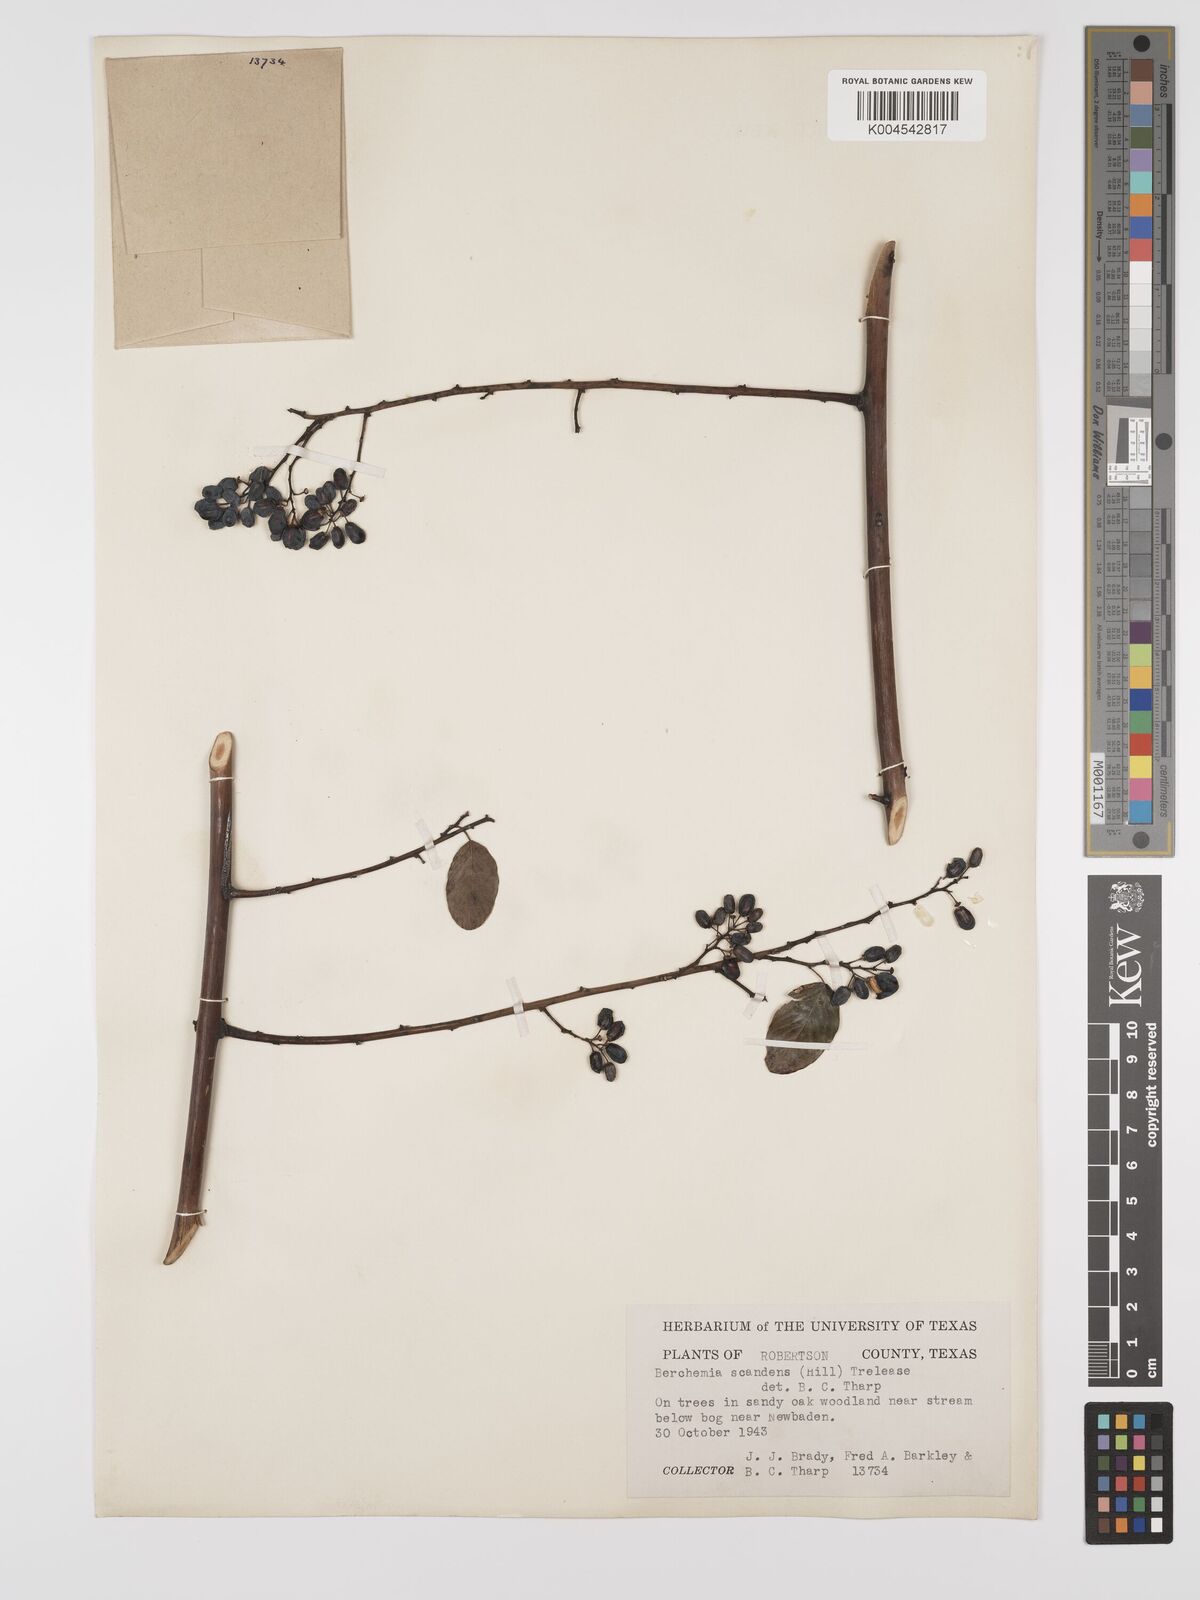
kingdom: Plantae
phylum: Tracheophyta
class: Magnoliopsida
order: Rosales
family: Rhamnaceae
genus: Berchemia
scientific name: Berchemia scandens
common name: Supplejack
